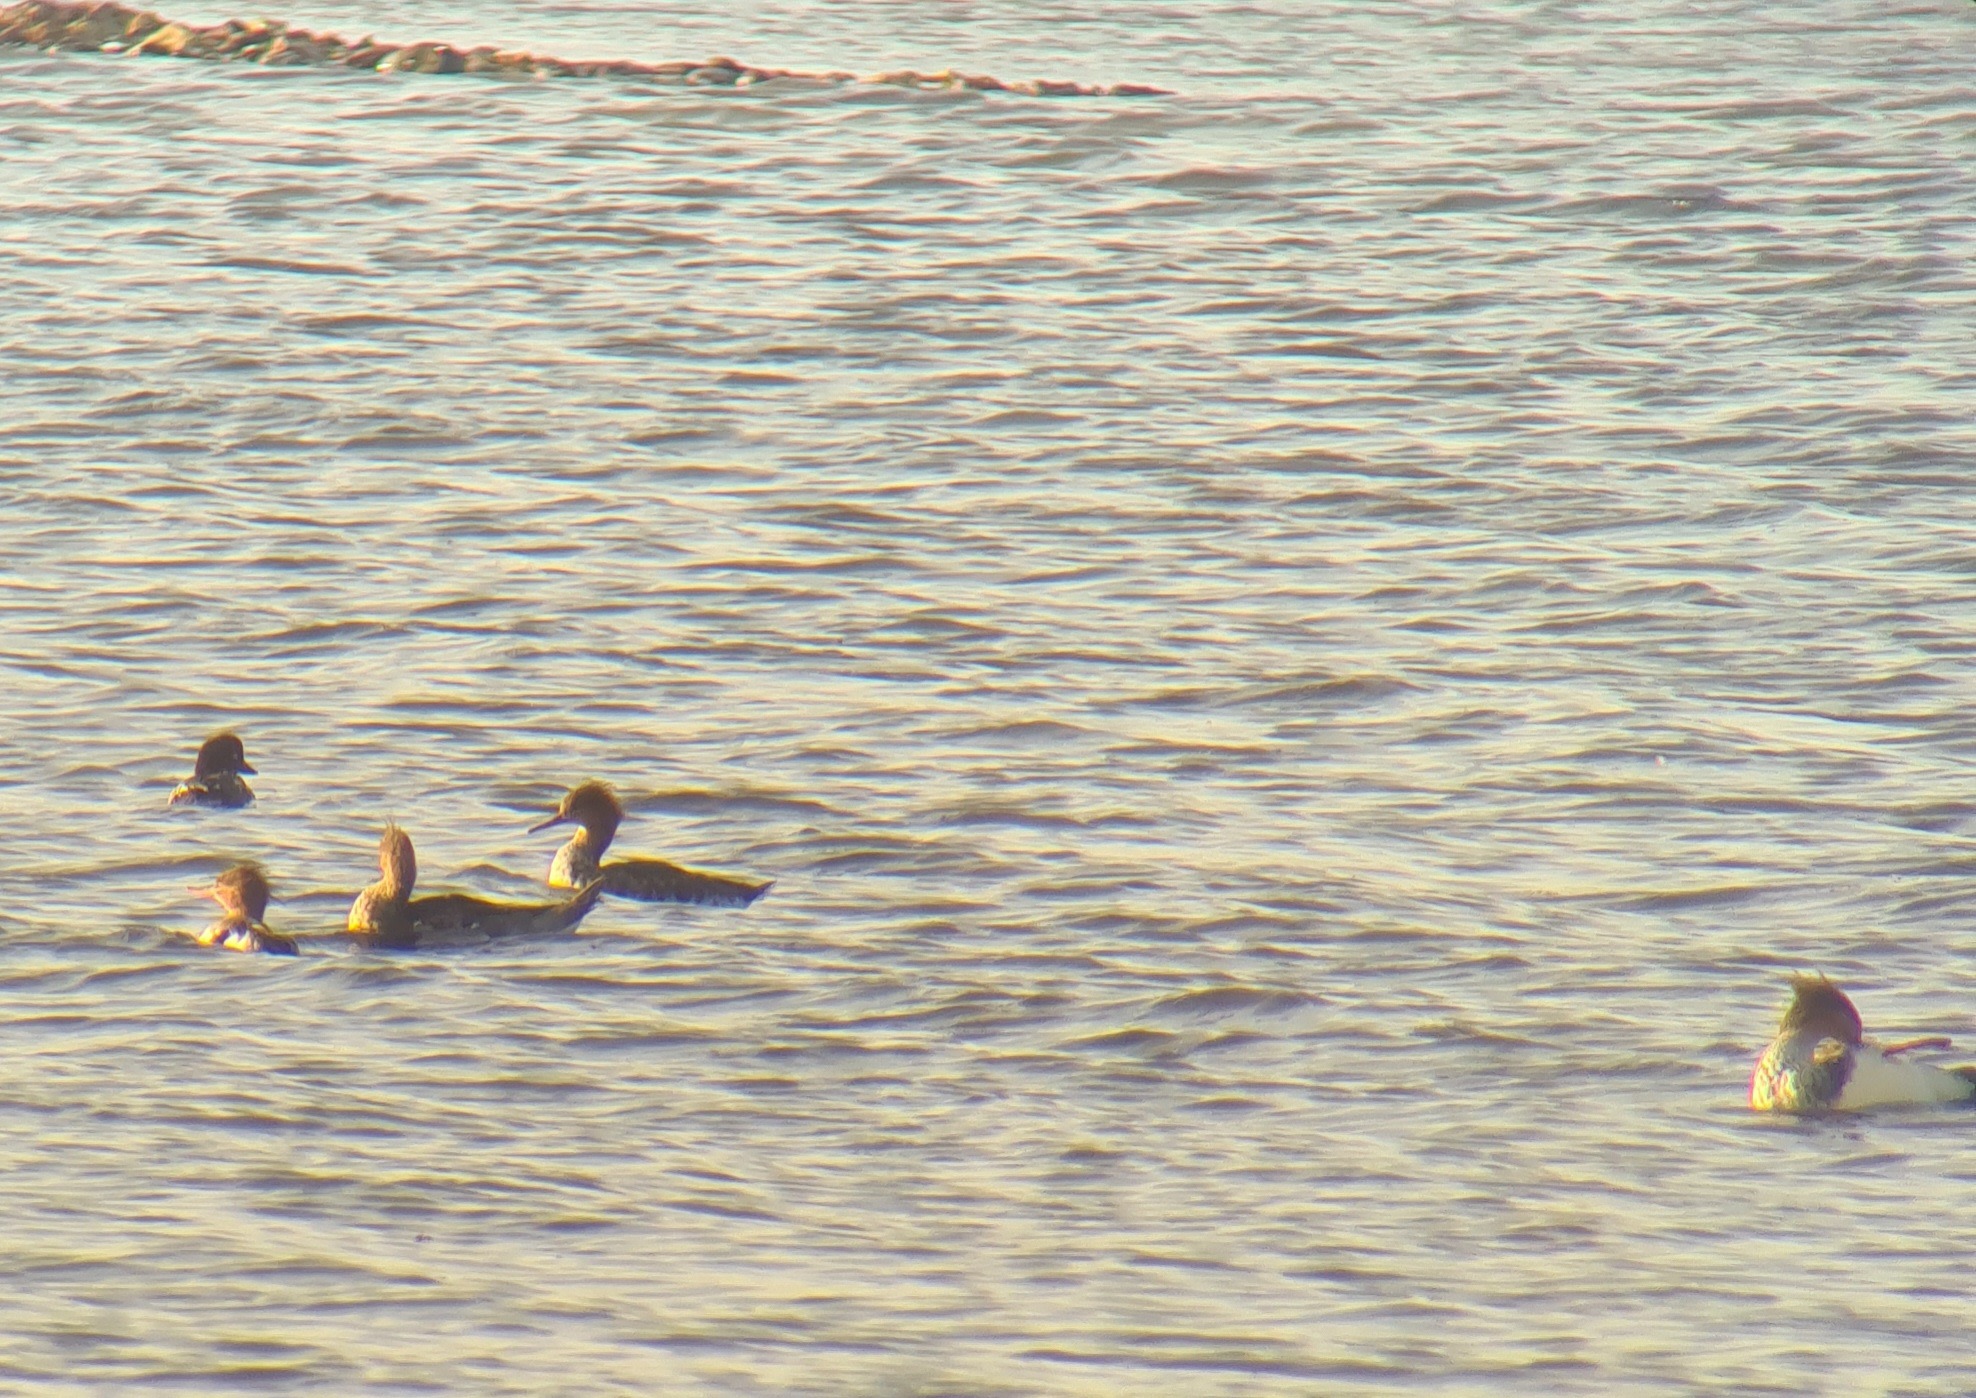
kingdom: Animalia
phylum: Chordata
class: Aves
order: Anseriformes
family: Anatidae
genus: Mergus
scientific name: Mergus serrator
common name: Toppet skallesluger
